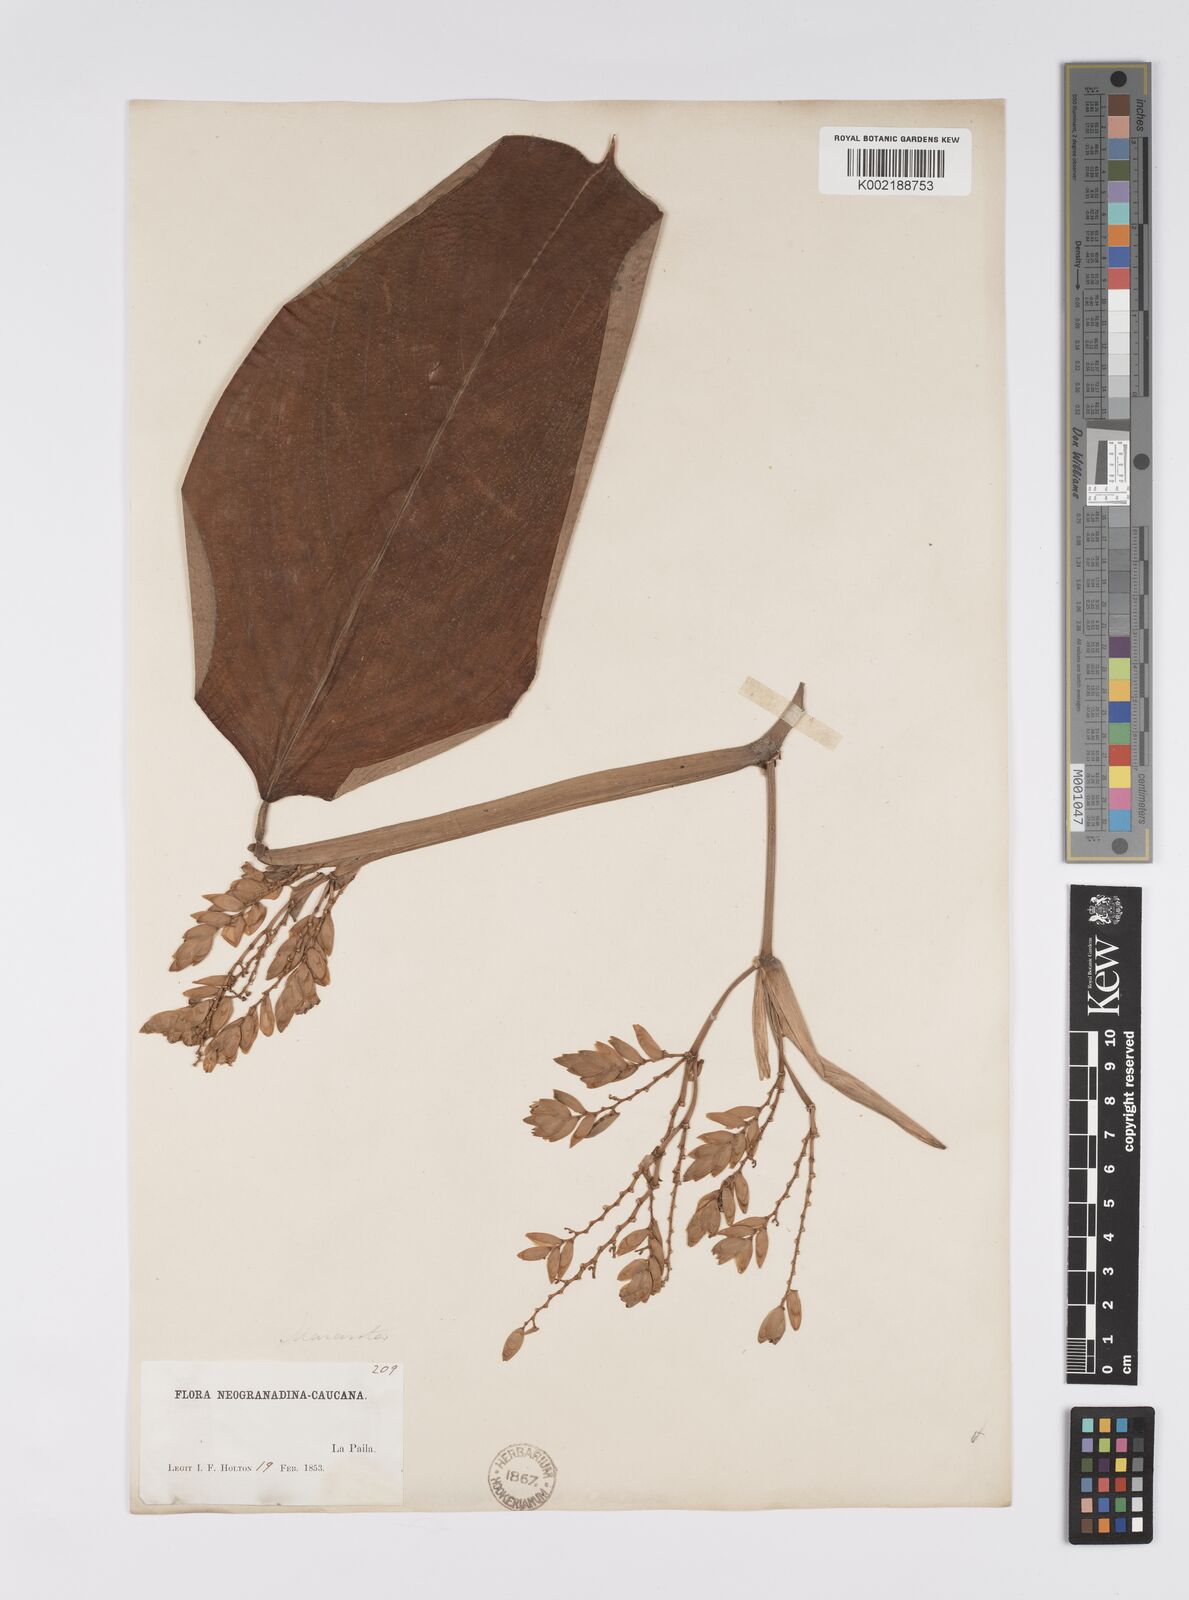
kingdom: Plantae
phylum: Tracheophyta
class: Liliopsida
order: Zingiberales
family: Marantaceae
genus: Stromanthe
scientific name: Stromanthe jacquinii
